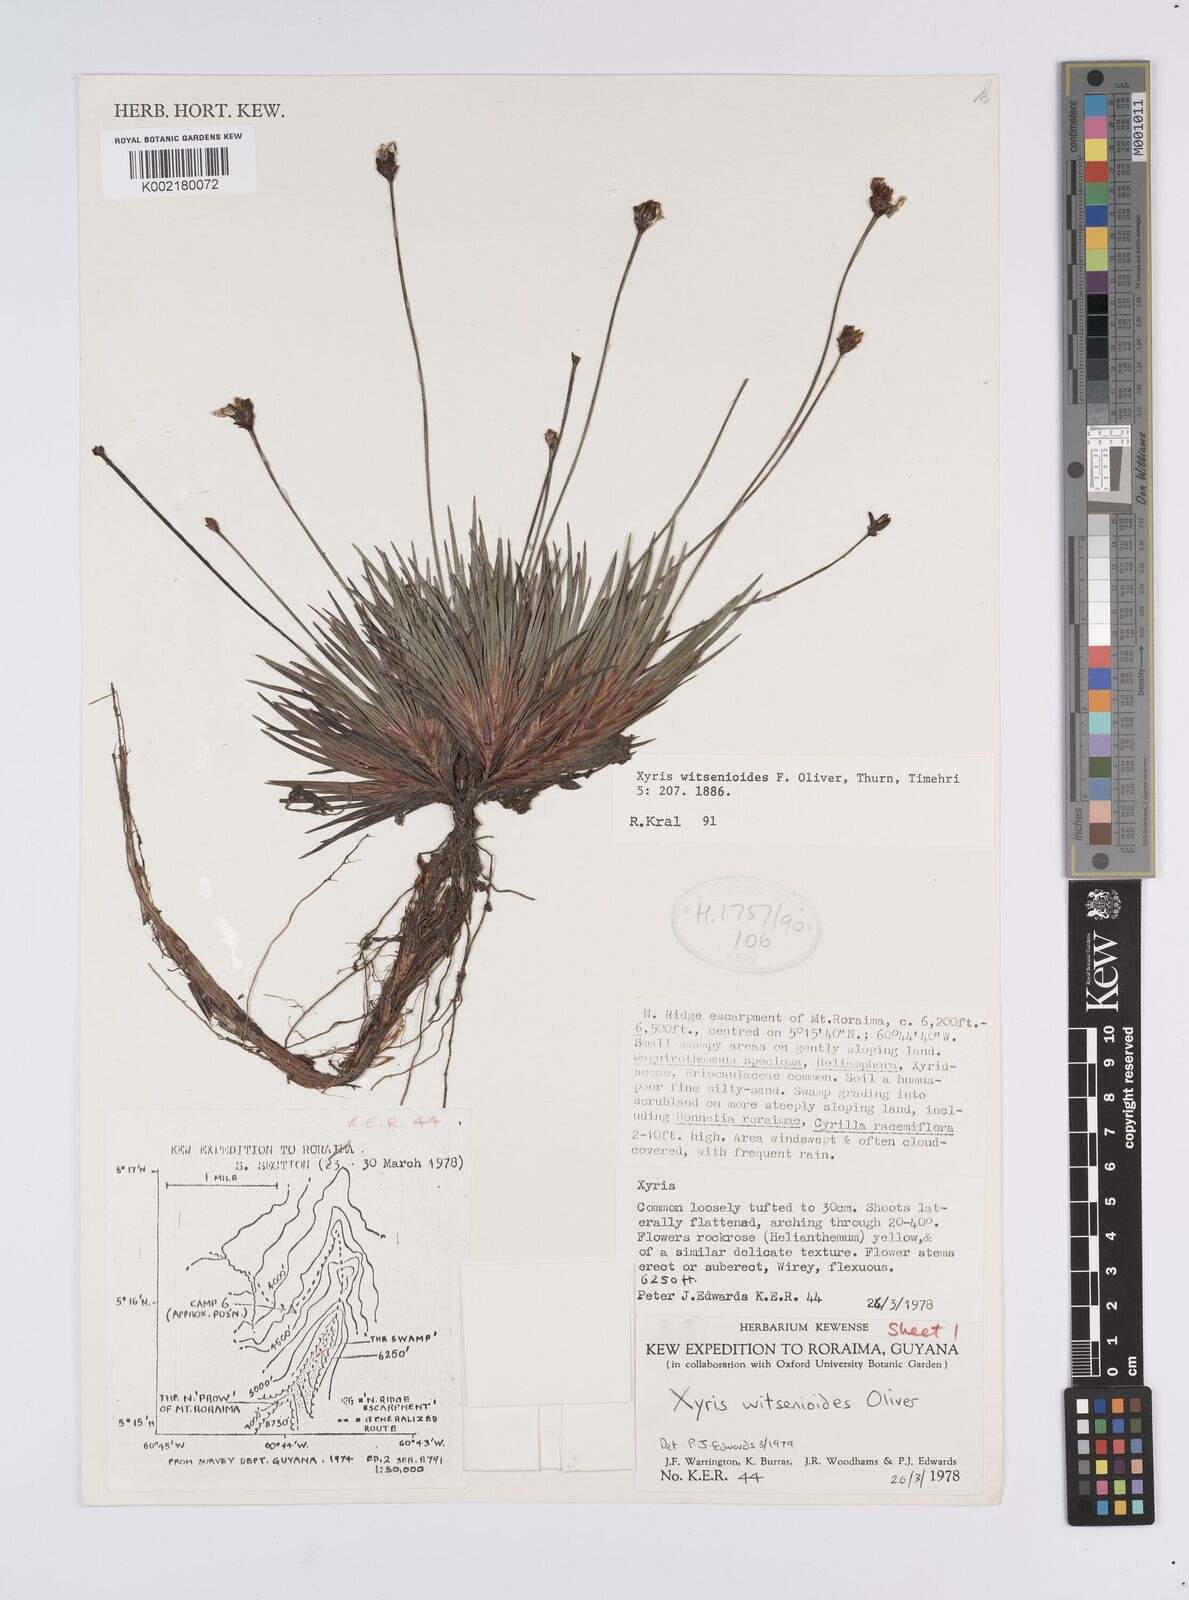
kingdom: Plantae
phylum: Tracheophyta
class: Liliopsida
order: Poales
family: Xyridaceae
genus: Xyris
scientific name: Xyris witsenioides
